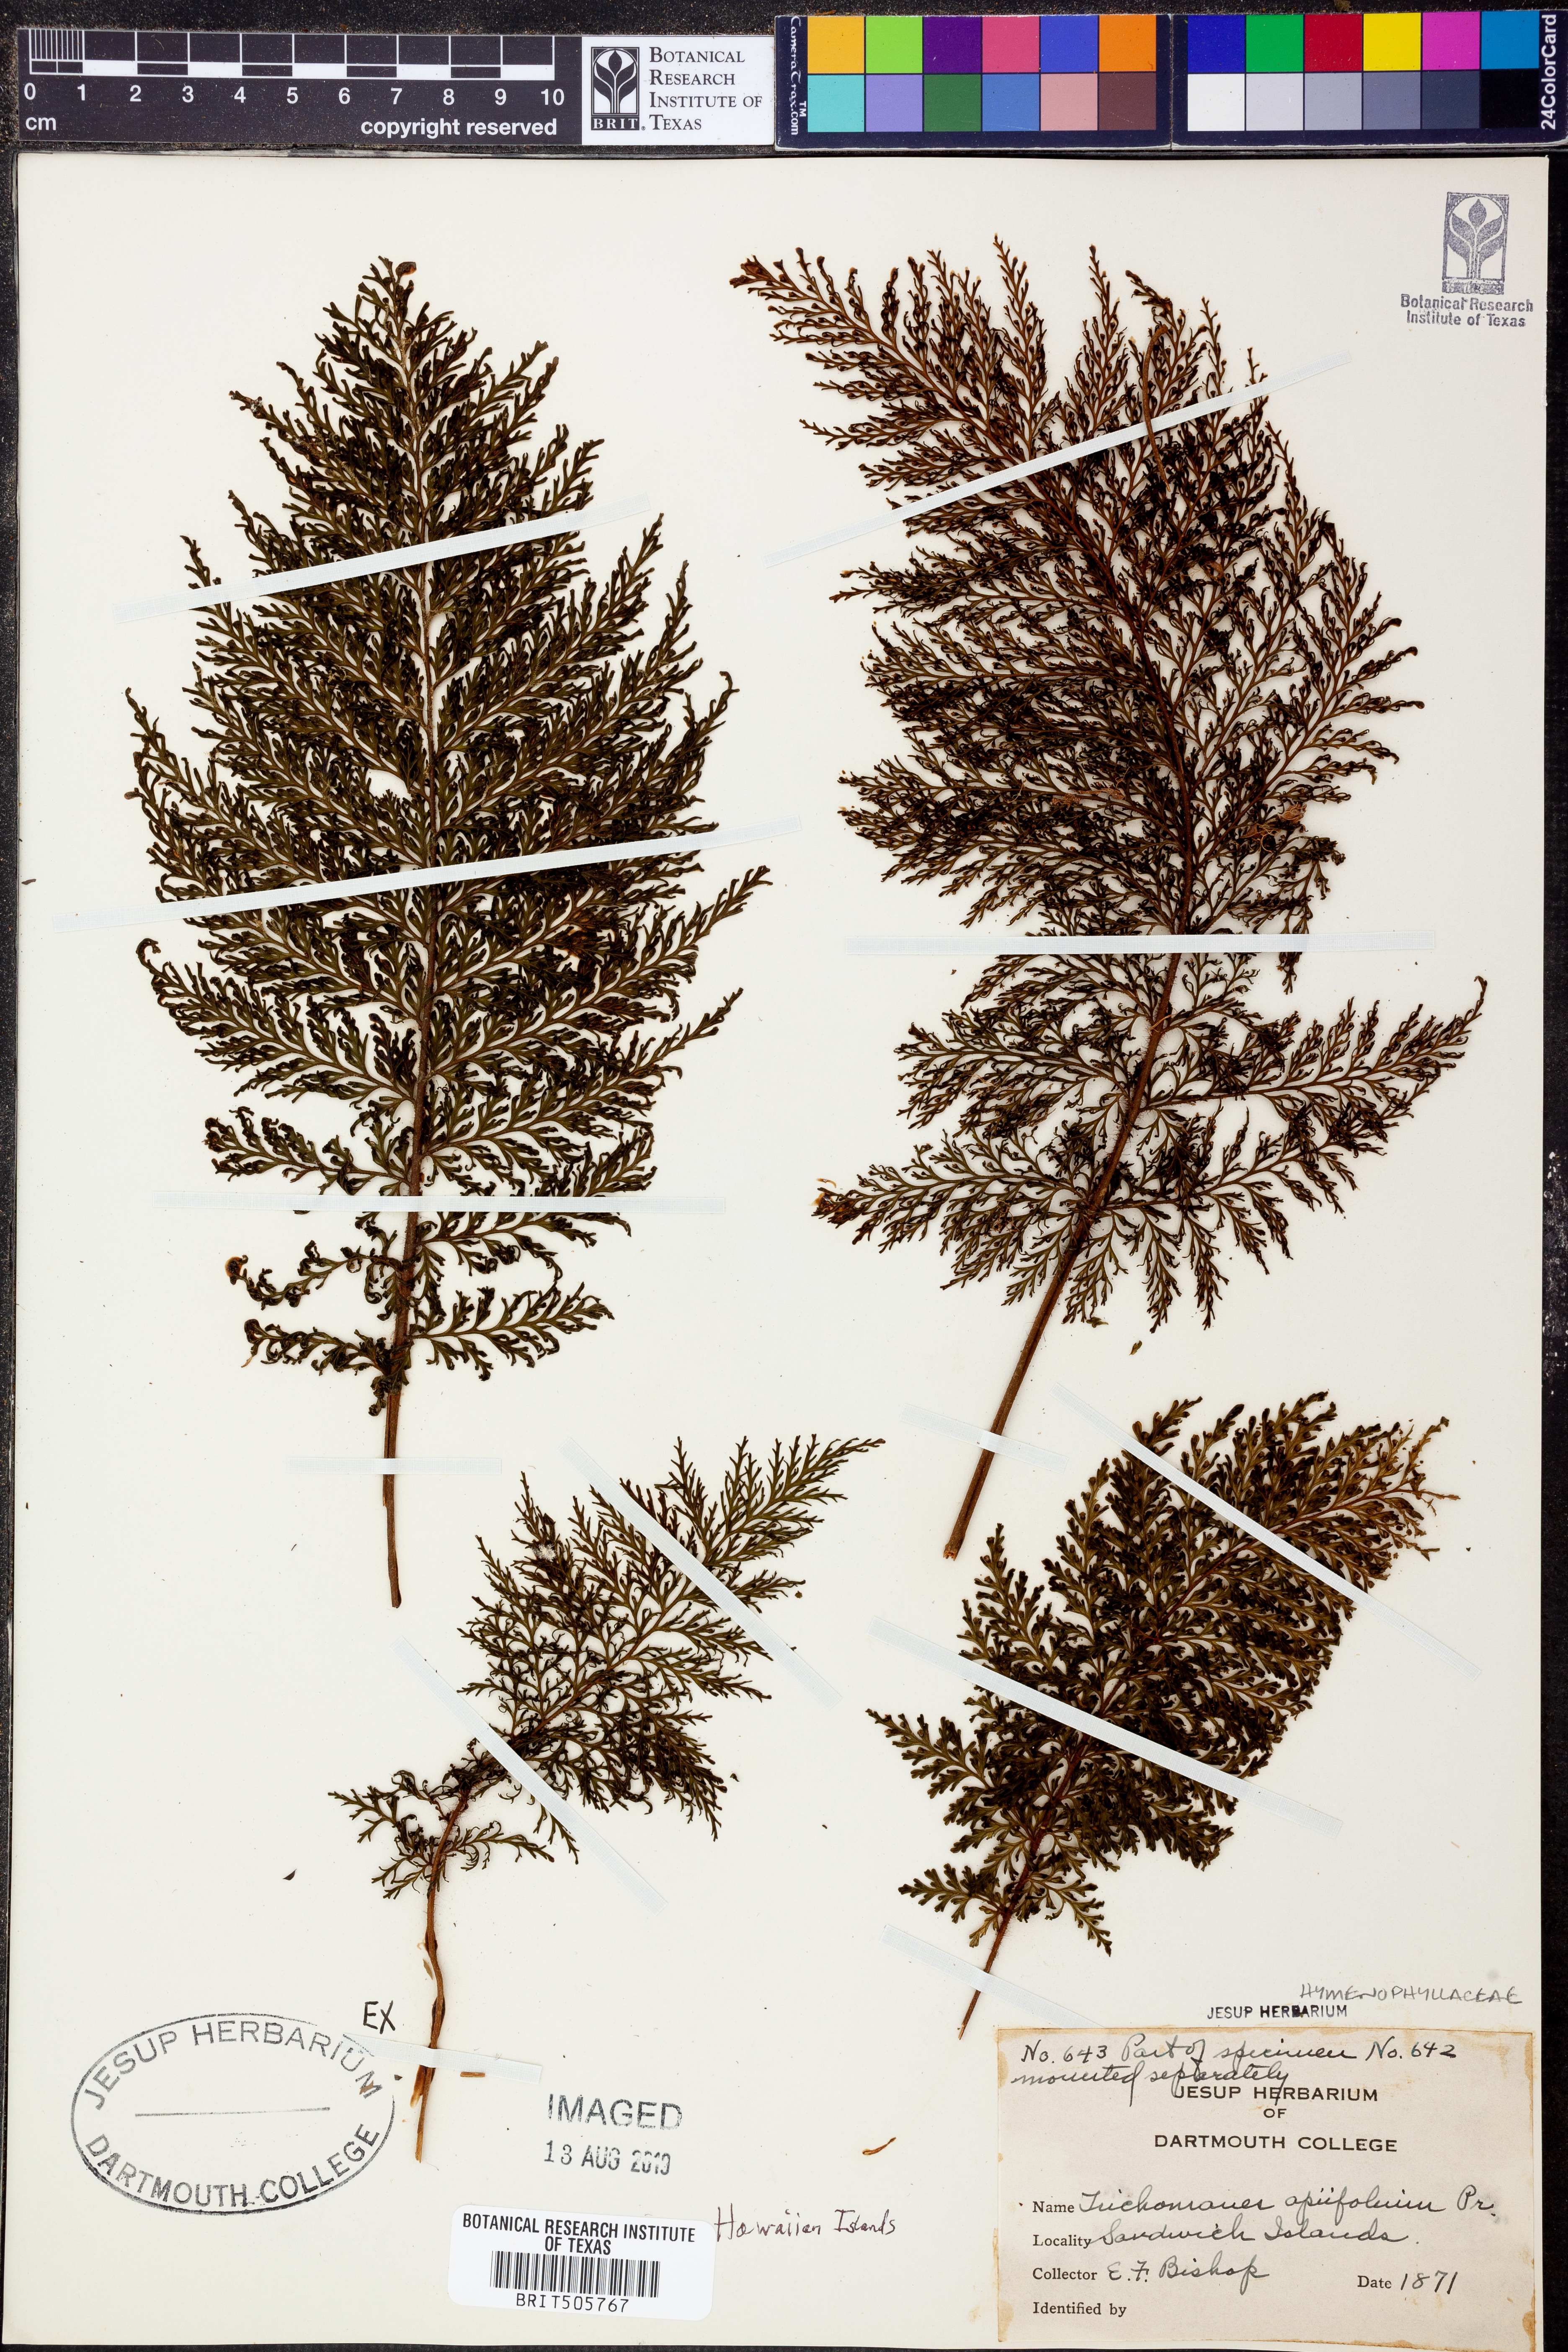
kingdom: Plantae
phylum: Tracheophyta
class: Polypodiopsida
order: Hymenophyllales
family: Hymenophyllaceae
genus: Callistopteris
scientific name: Callistopteris apiifolia
